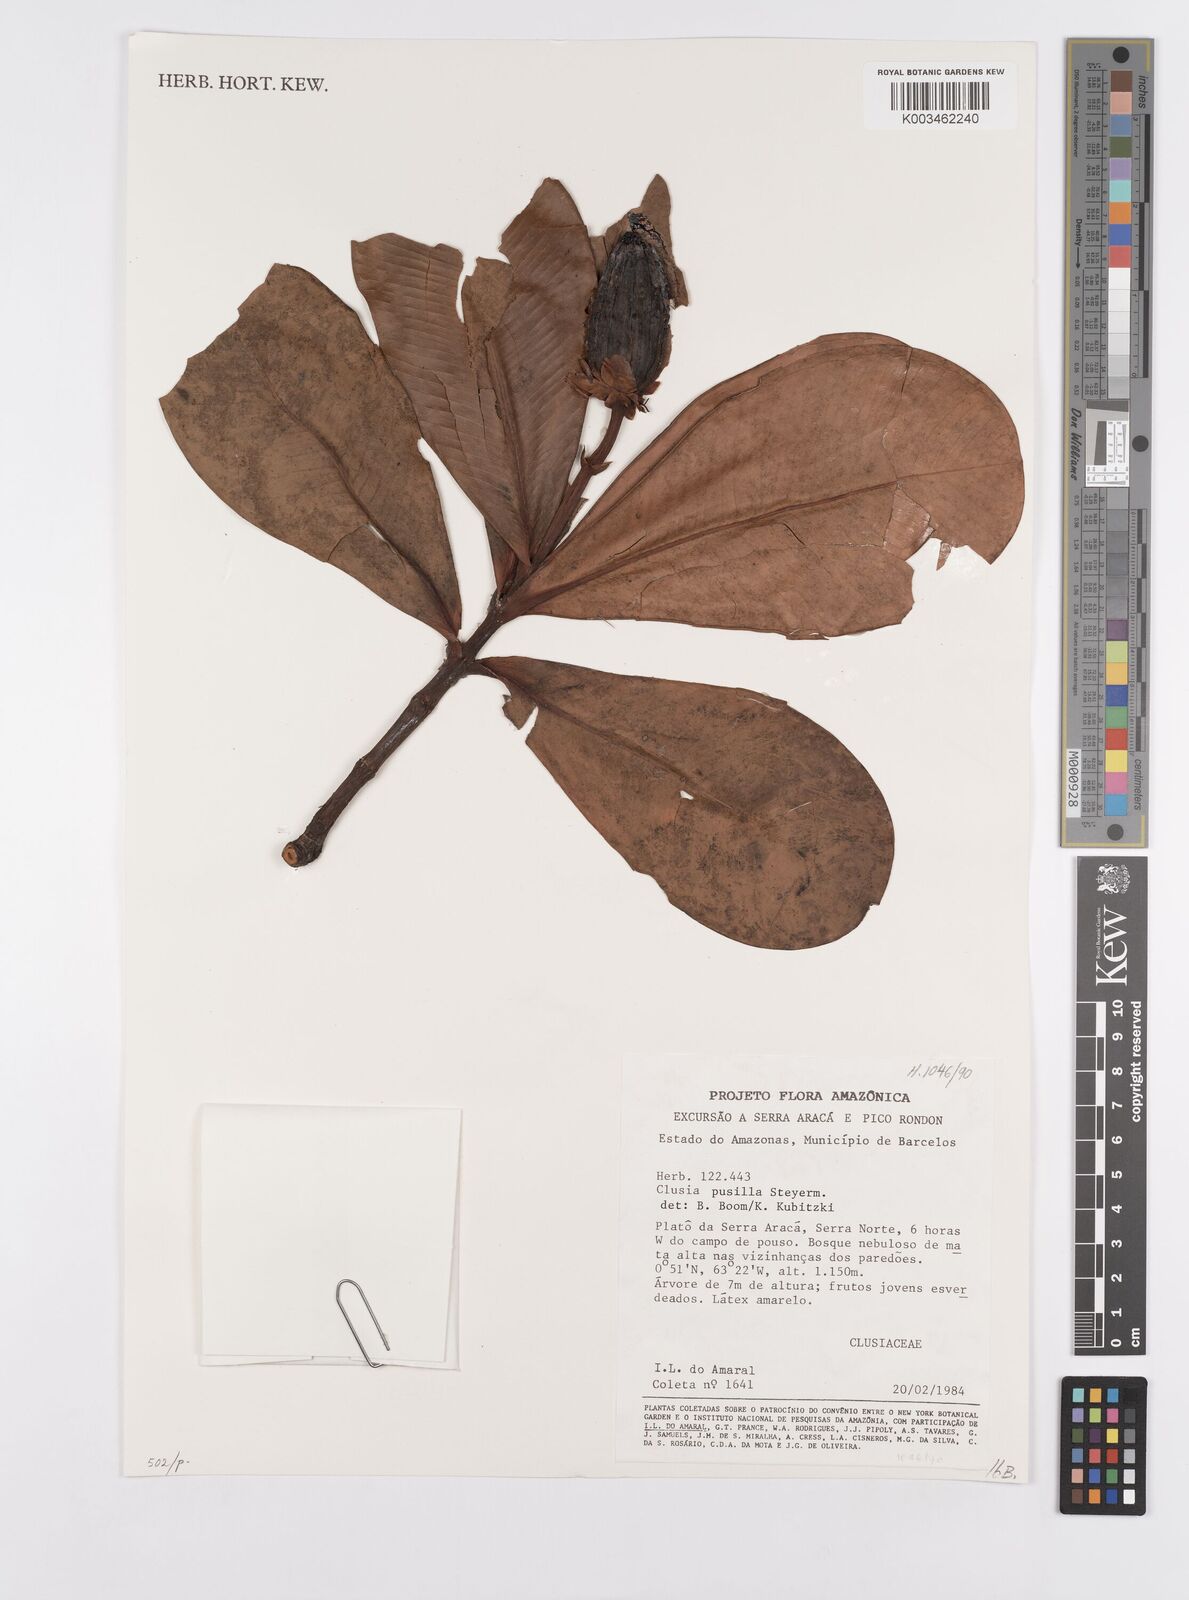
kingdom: Plantae
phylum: Tracheophyta
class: Magnoliopsida
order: Malpighiales
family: Clusiaceae
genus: Clusia
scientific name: Clusia pusilla
